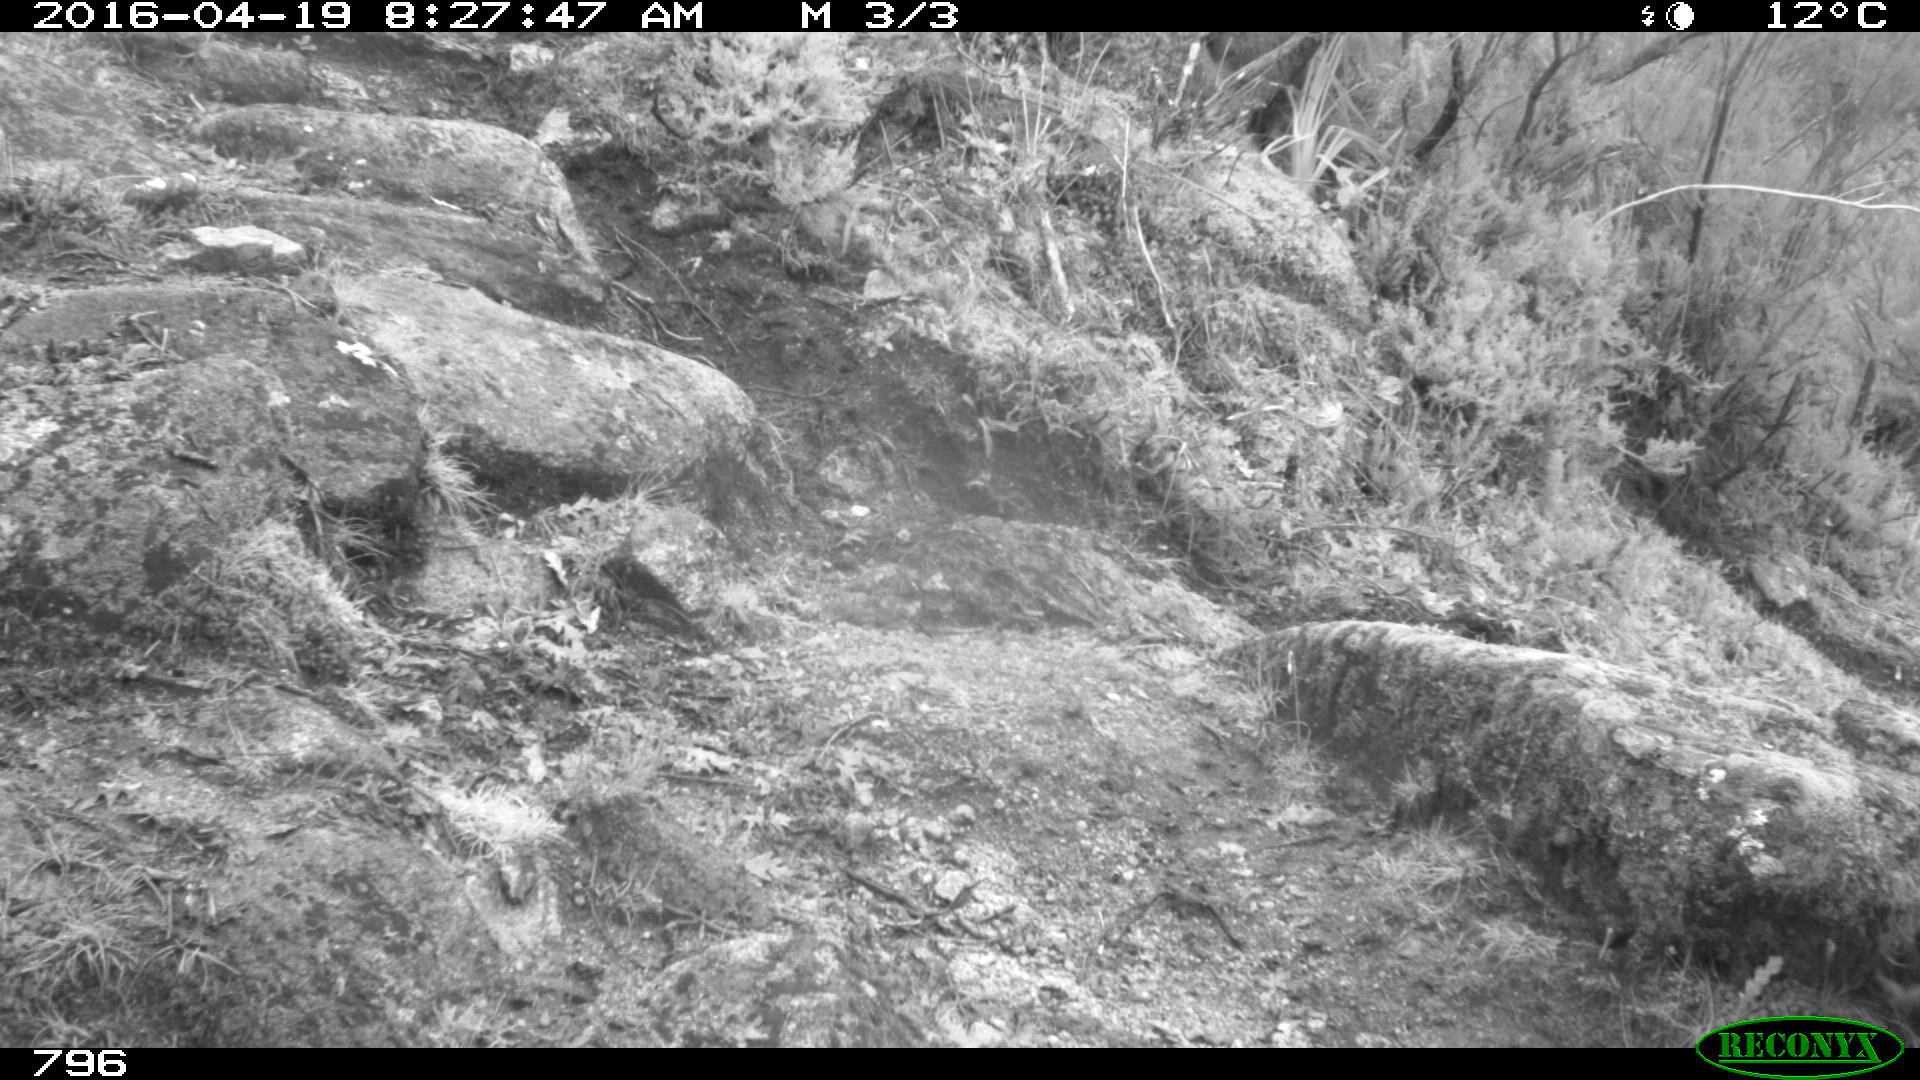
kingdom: Animalia
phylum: Chordata
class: Mammalia
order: Artiodactyla
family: Bovidae
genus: Bos
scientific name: Bos taurus
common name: Domesticated cattle
